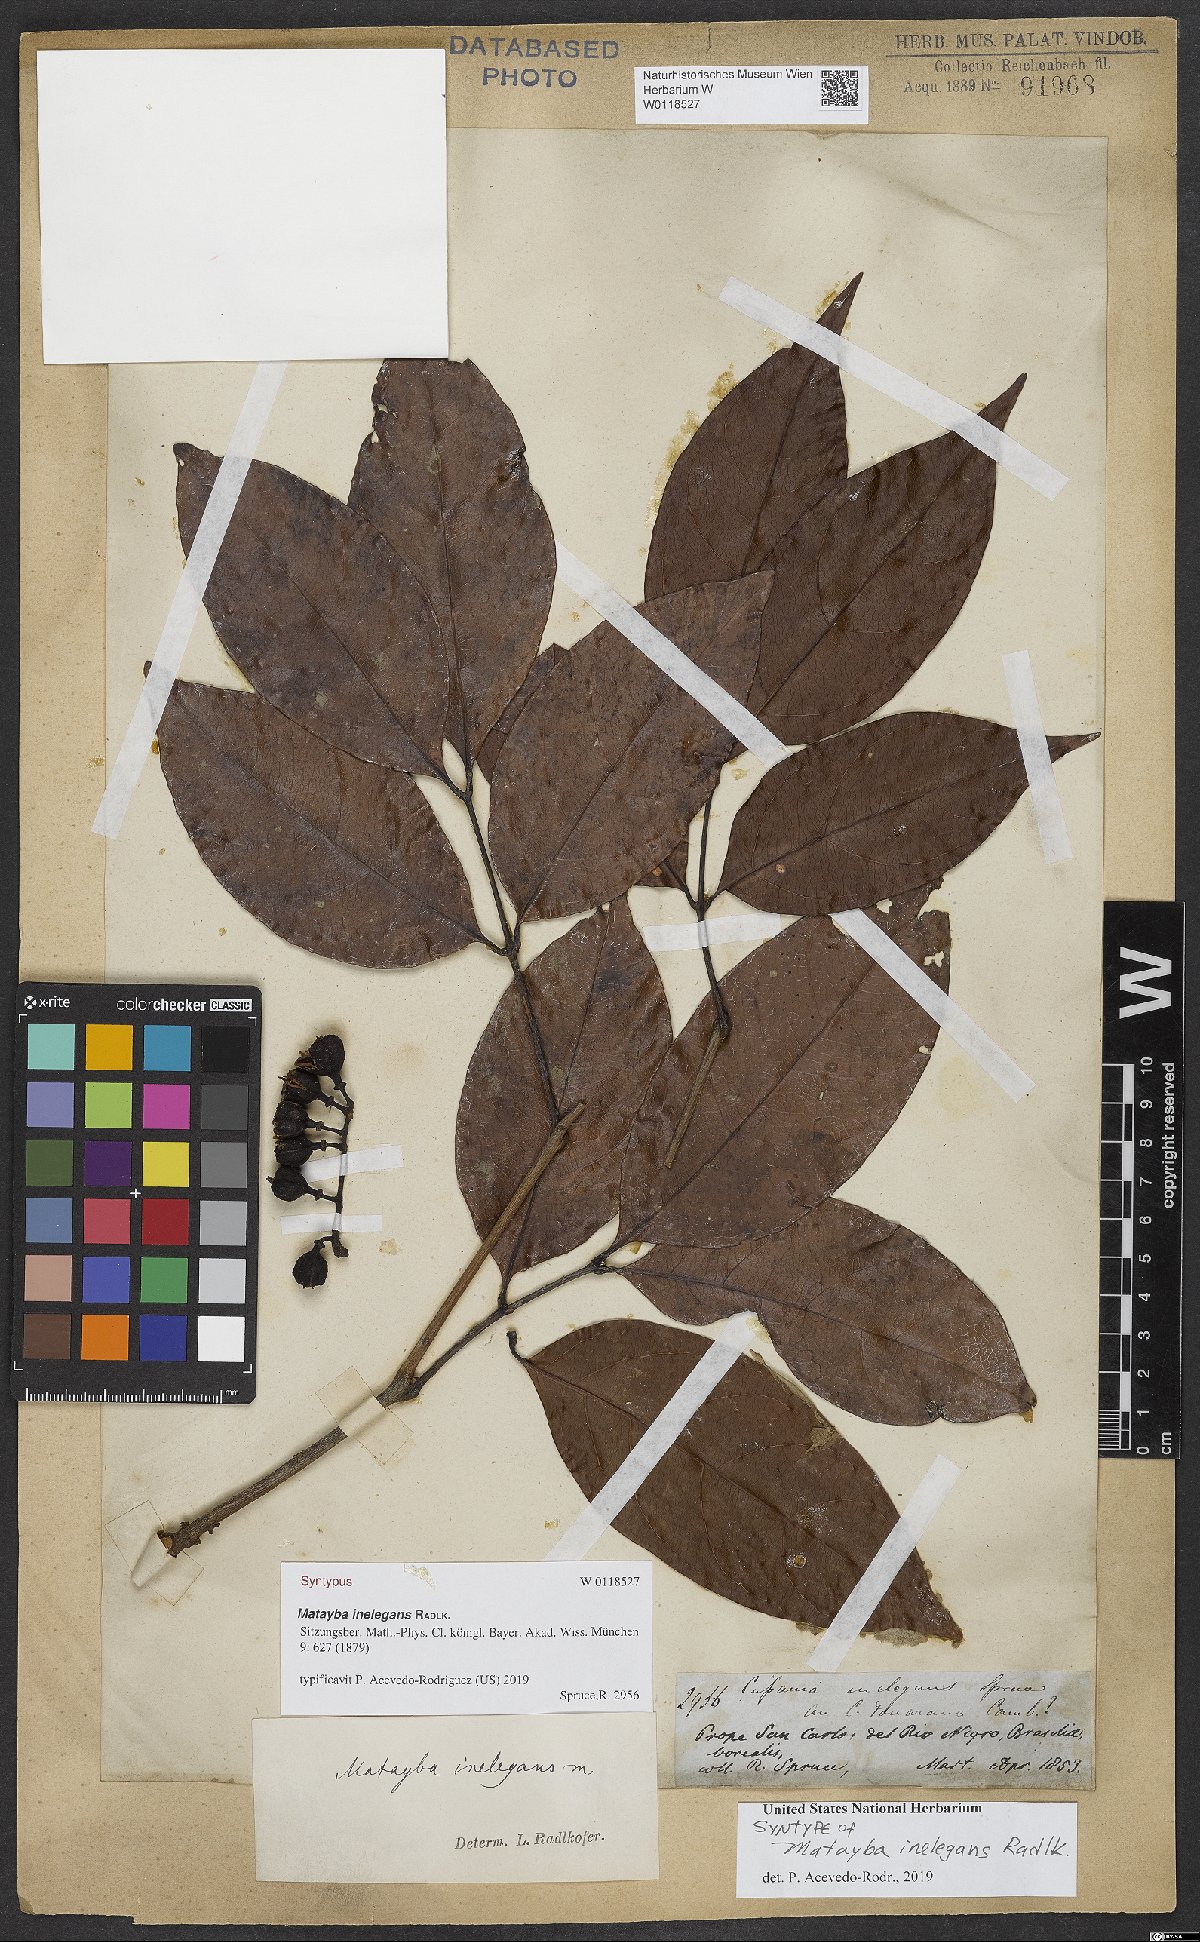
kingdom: Plantae
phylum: Tracheophyta
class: Magnoliopsida
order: Sapindales
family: Sapindaceae
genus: Matayba
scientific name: Matayba inelegans
